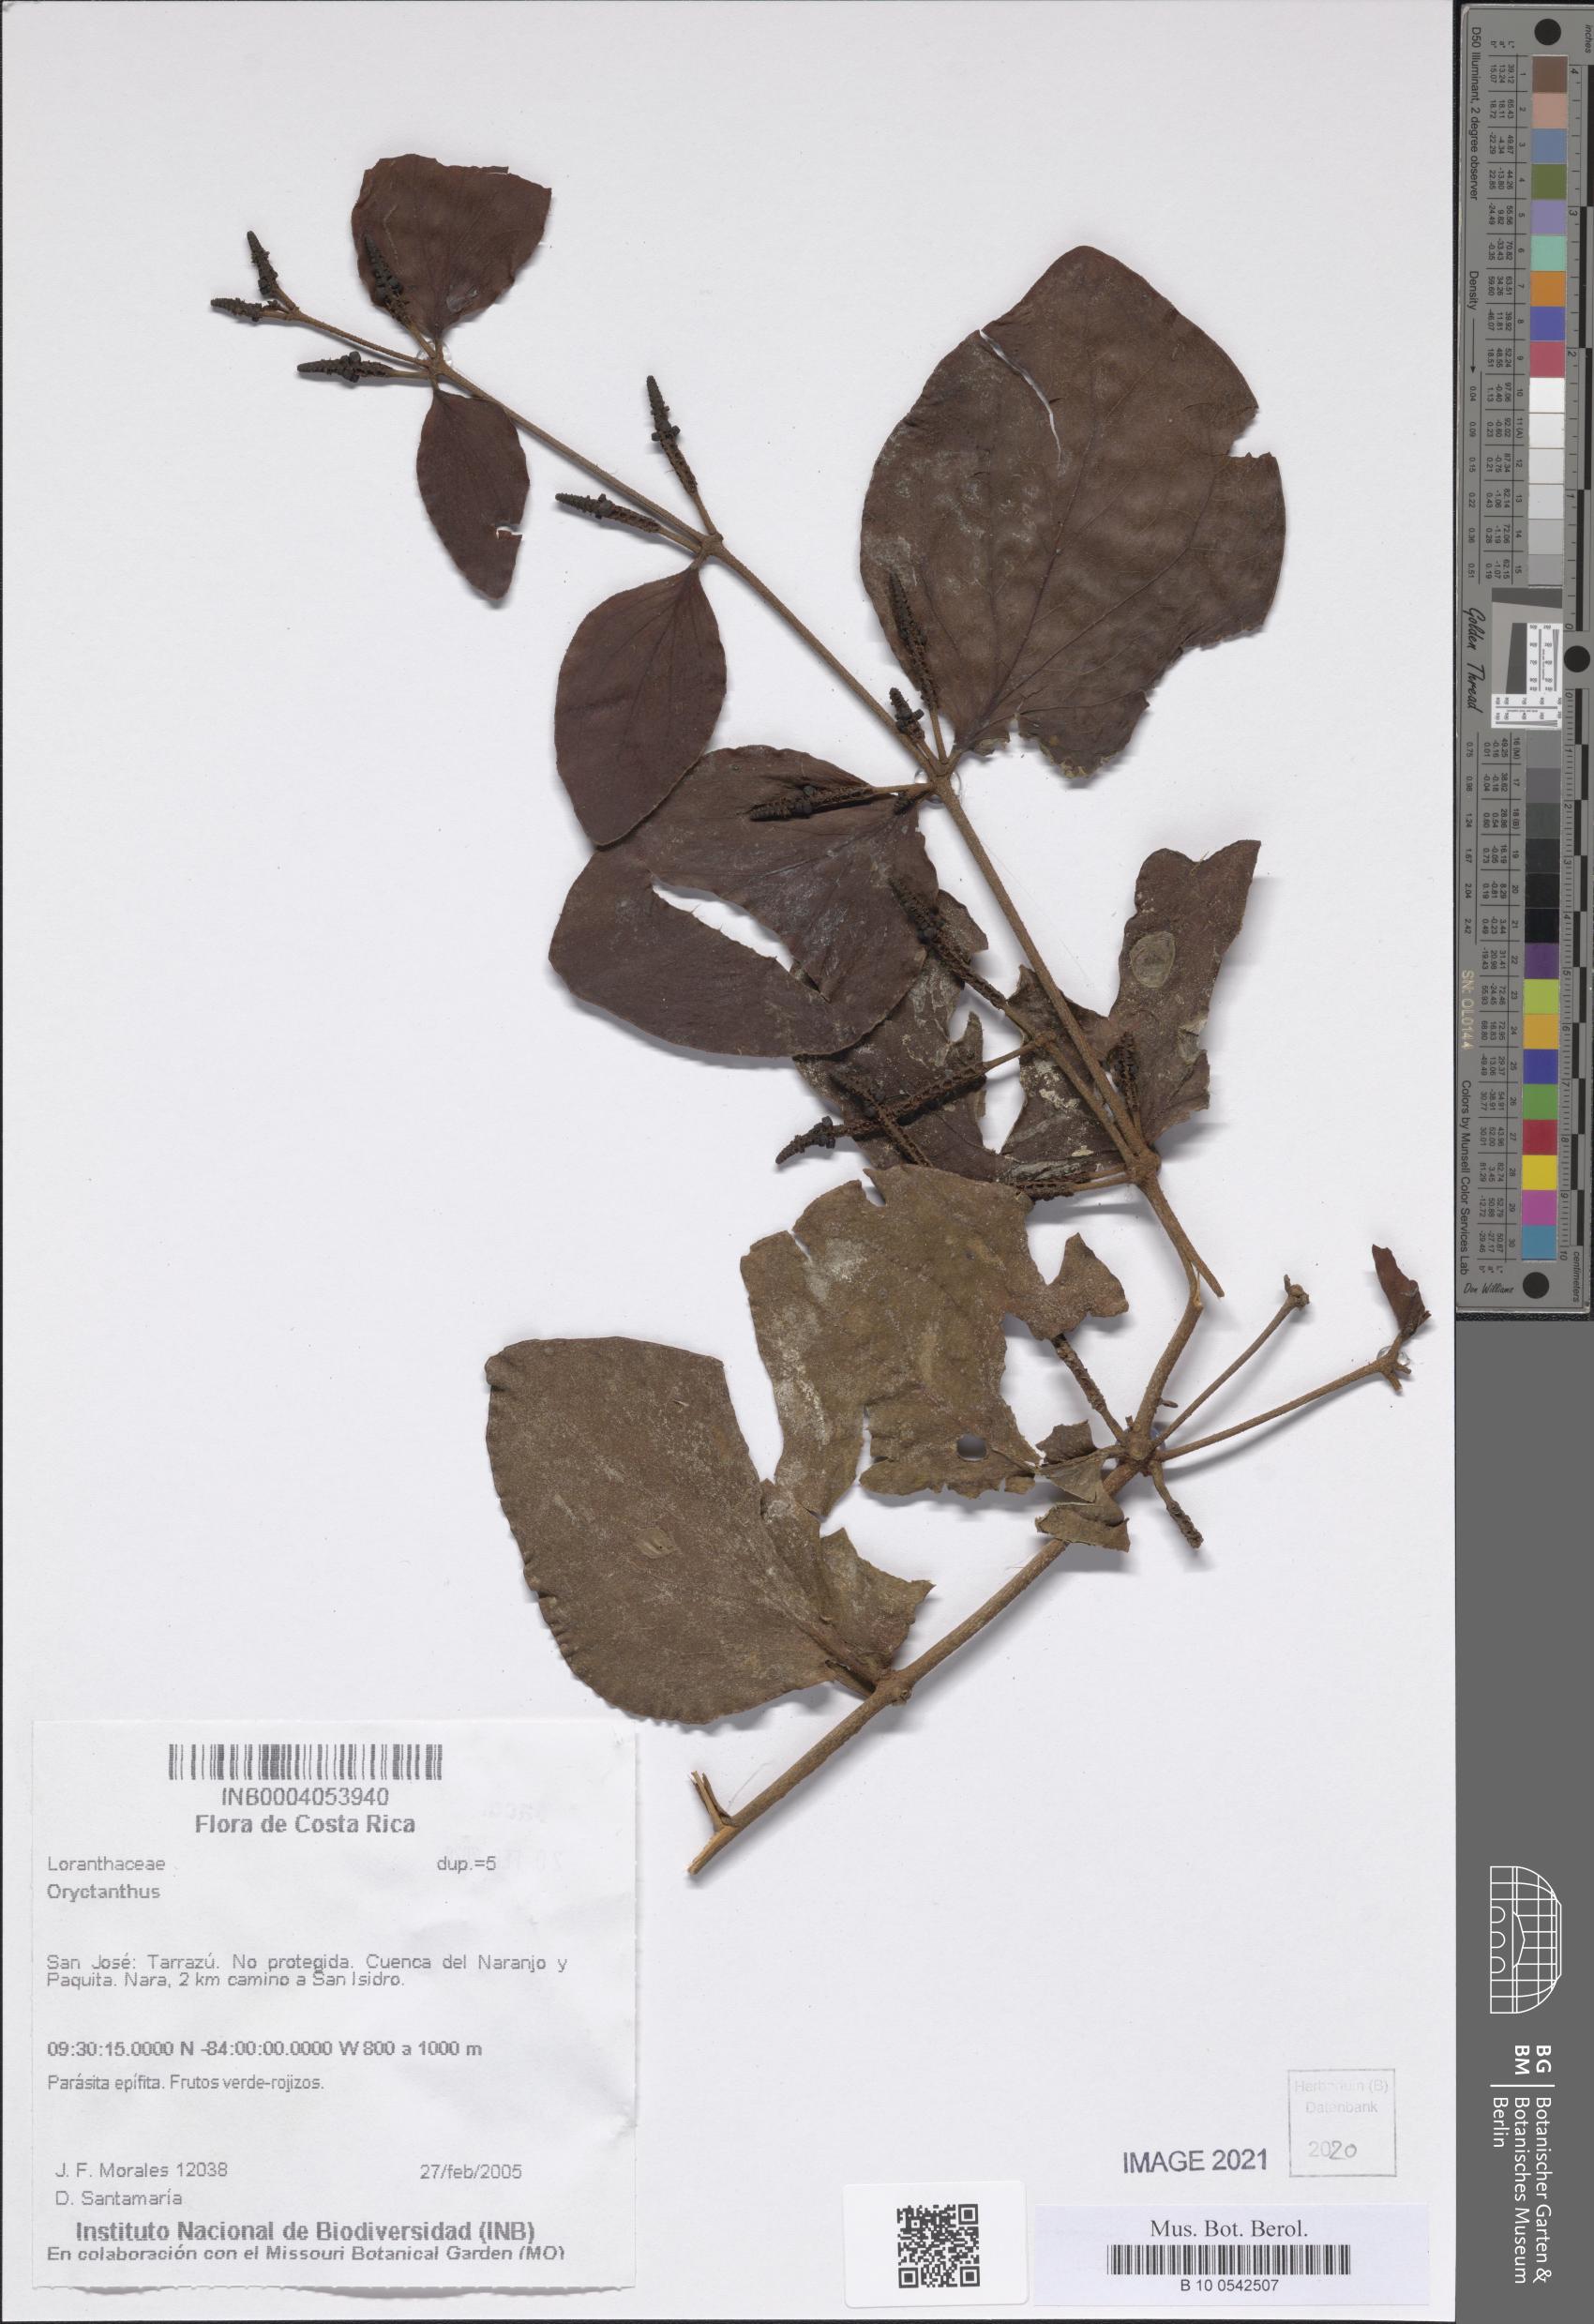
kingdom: Plantae
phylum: Tracheophyta
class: Magnoliopsida
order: Santalales
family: Loranthaceae
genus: Oryctanthus
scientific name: Oryctanthus
